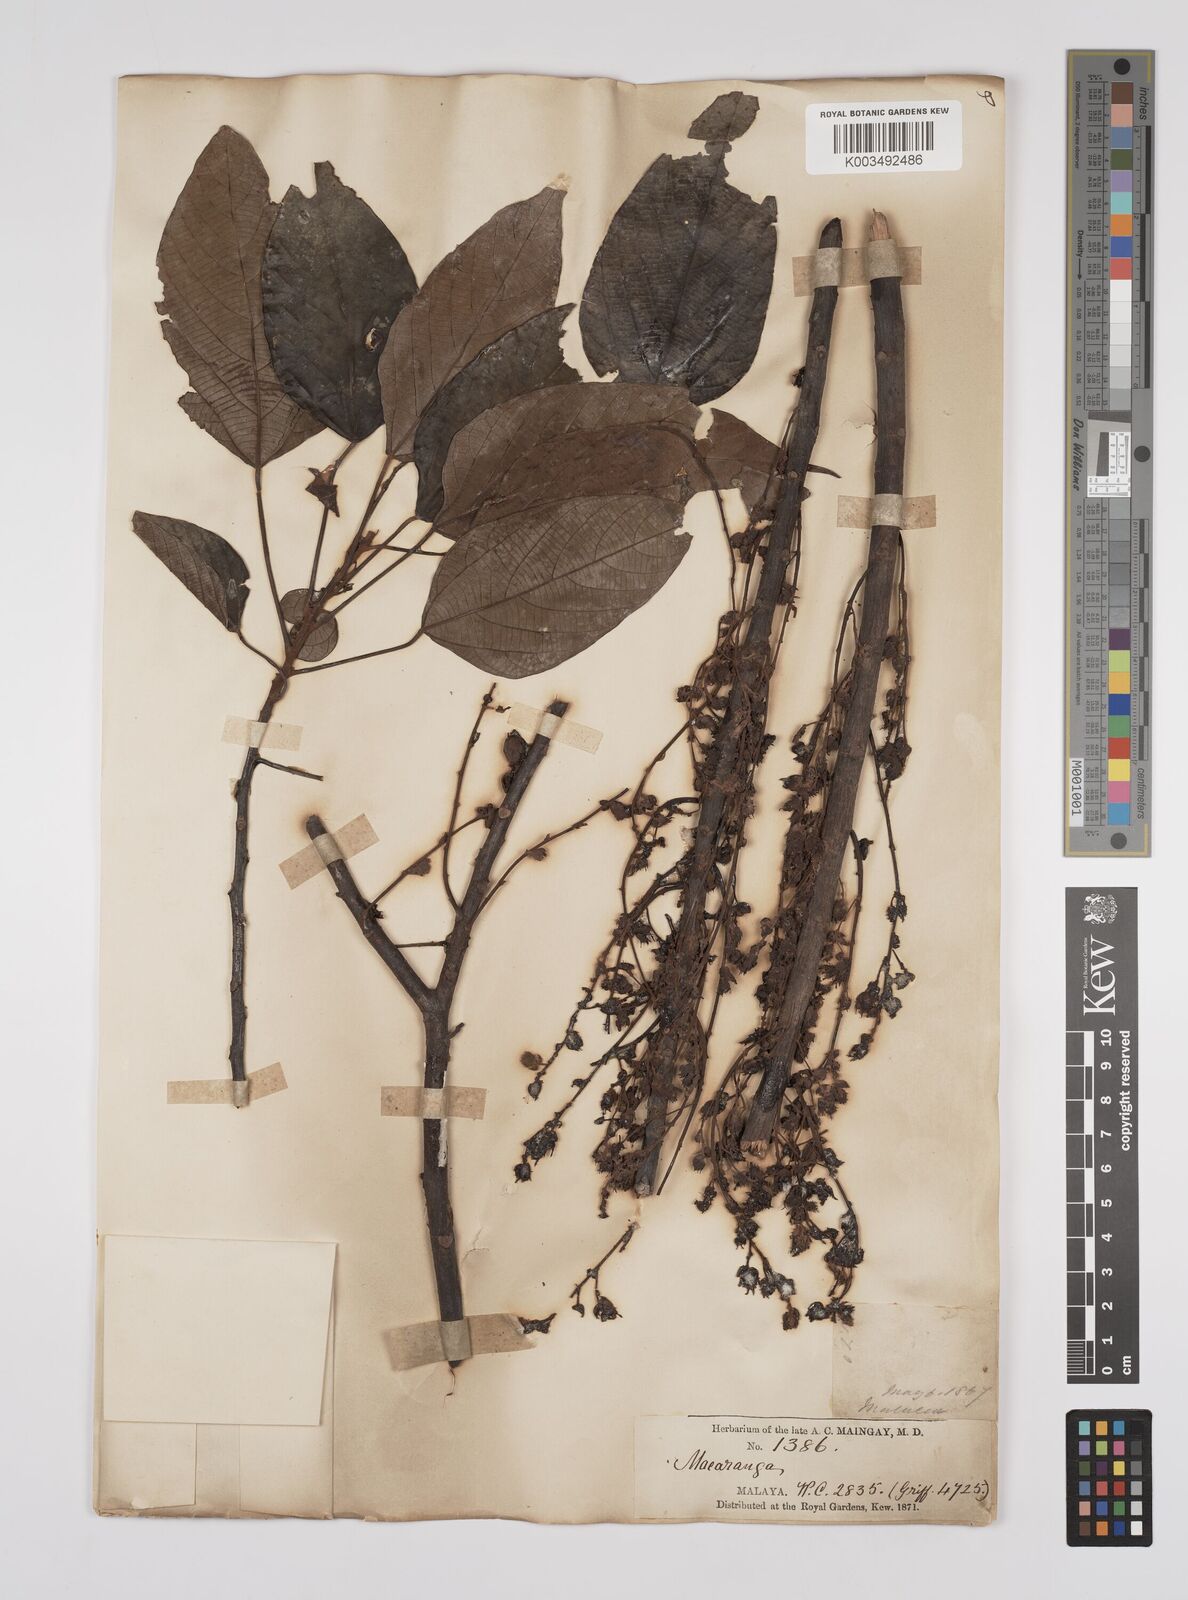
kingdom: Plantae
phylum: Tracheophyta
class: Magnoliopsida
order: Malpighiales
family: Euphorbiaceae
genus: Macaranga
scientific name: Macaranga heynei
